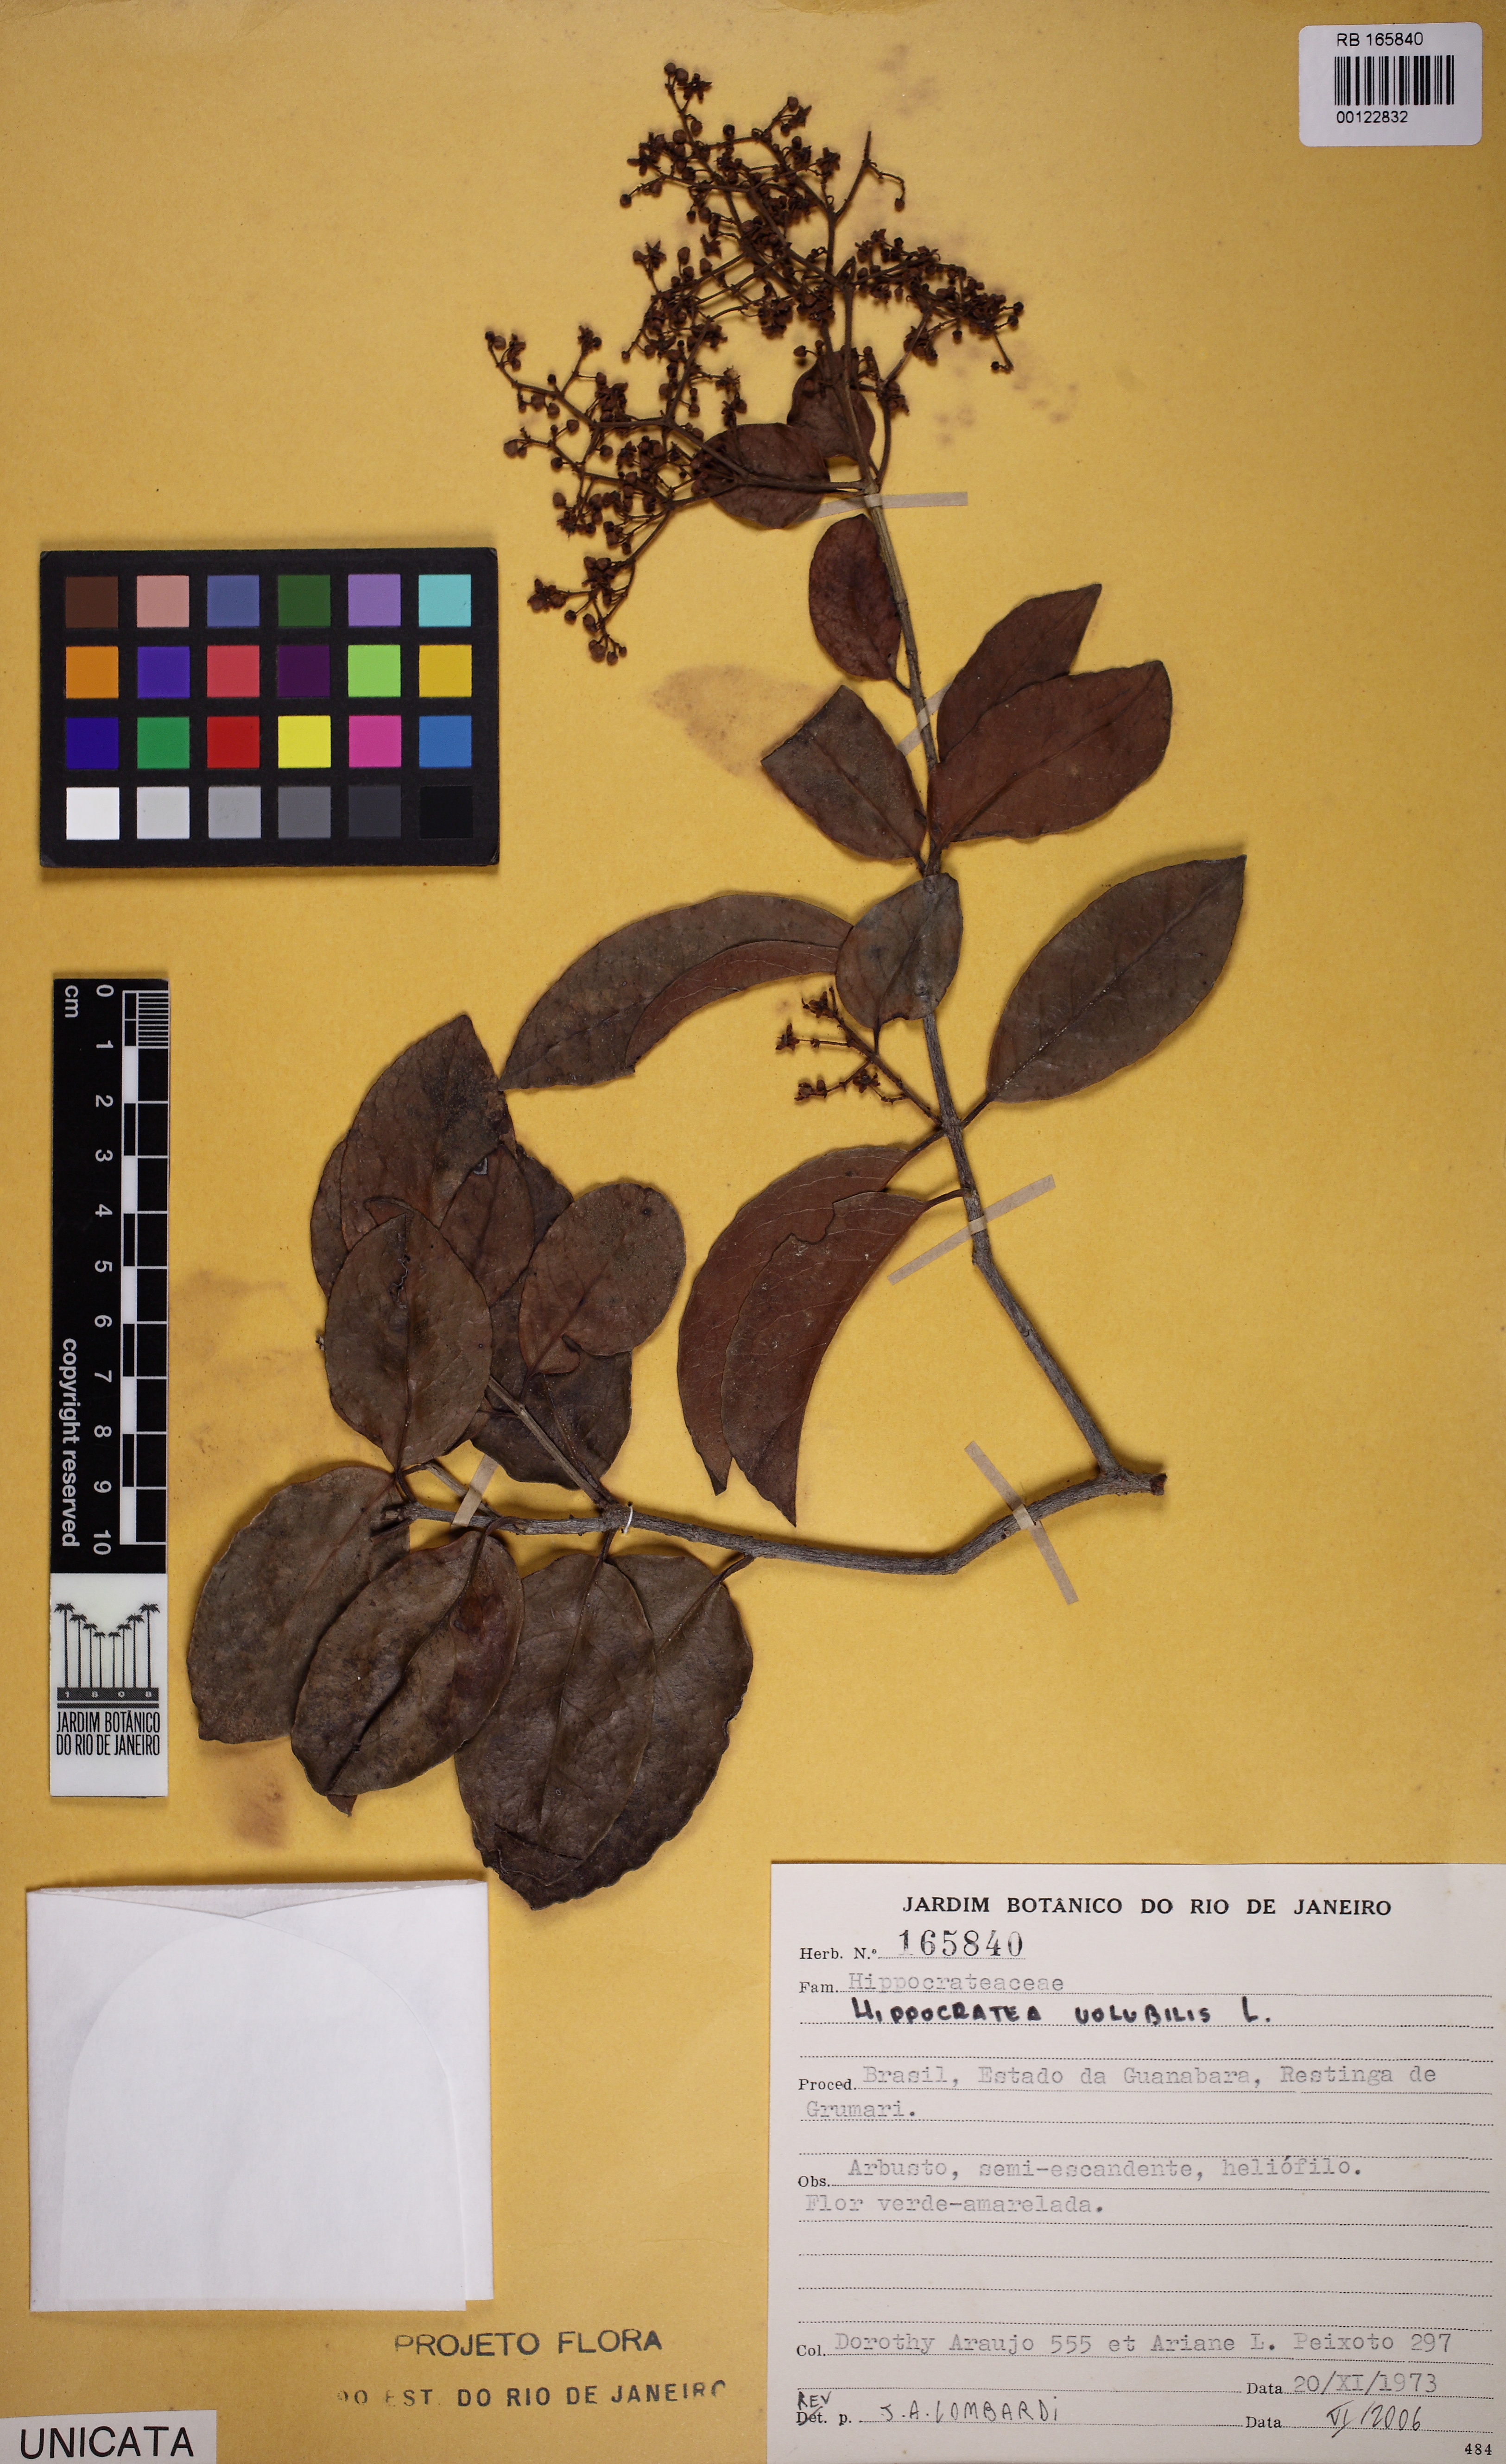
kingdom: Plantae
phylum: Tracheophyta
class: Magnoliopsida
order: Celastrales
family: Celastraceae
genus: Hippocratea
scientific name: Hippocratea volubilis
